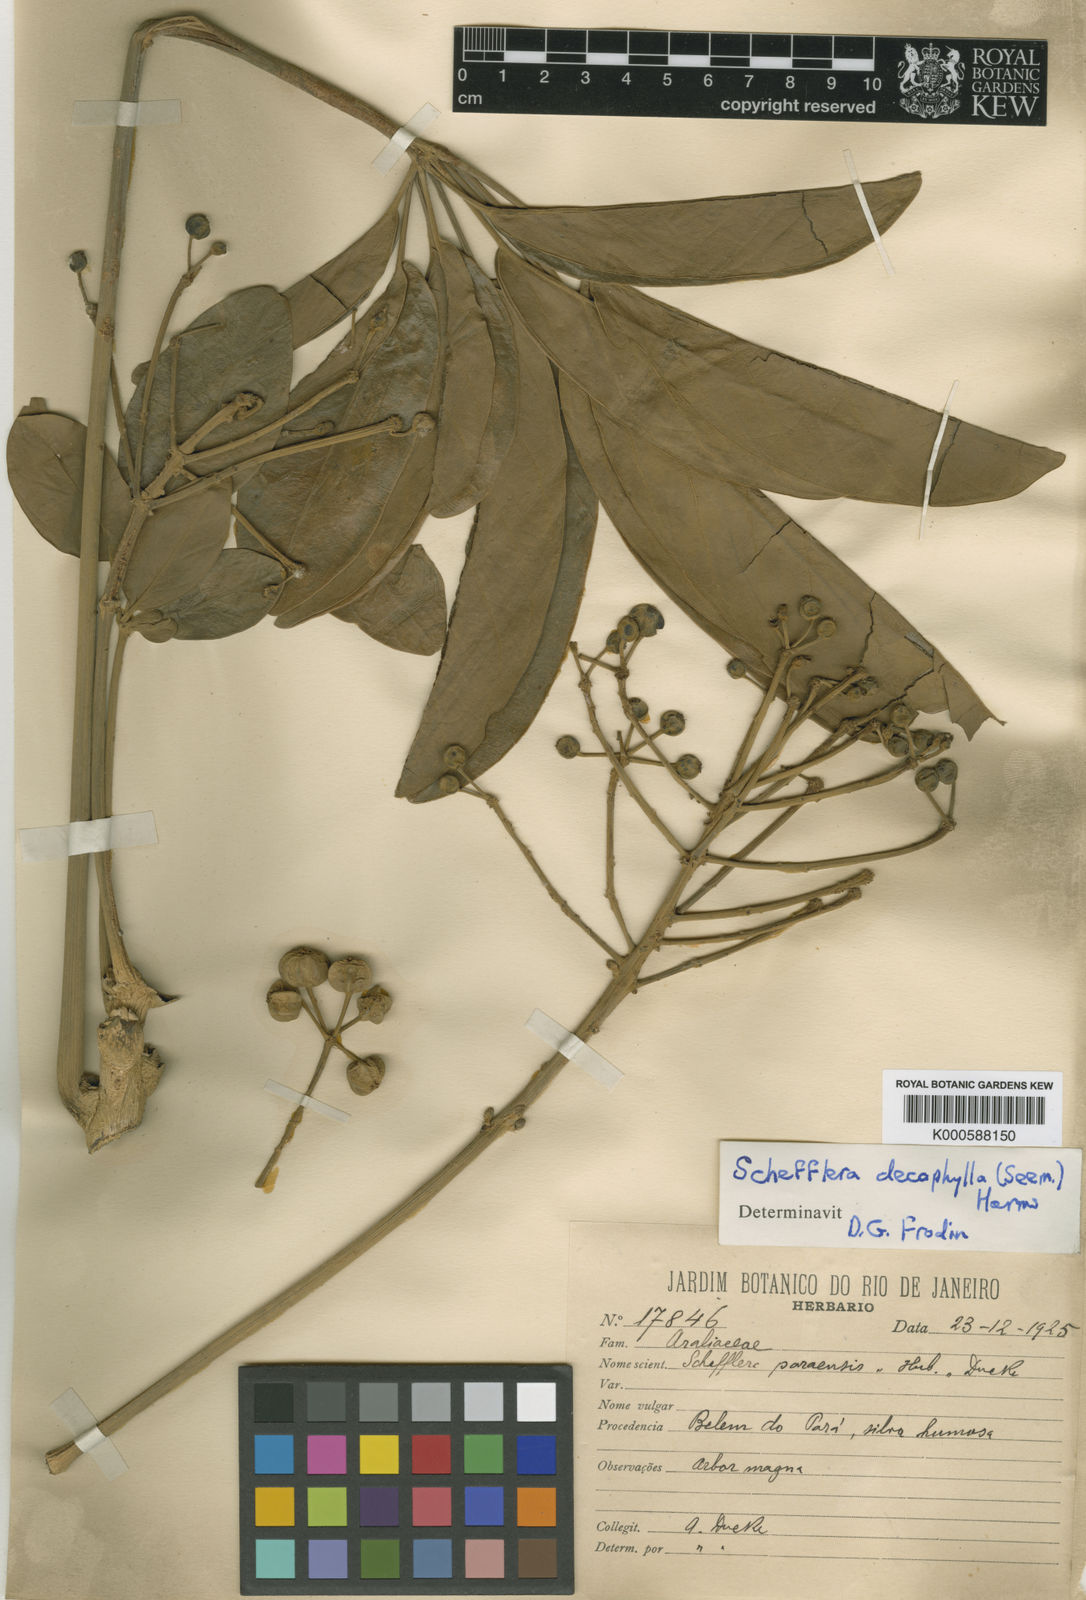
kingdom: Plantae
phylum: Tracheophyta
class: Magnoliopsida
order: Apiales
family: Araliaceae
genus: Didymopanax
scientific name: Didymopanax decaphyllus
